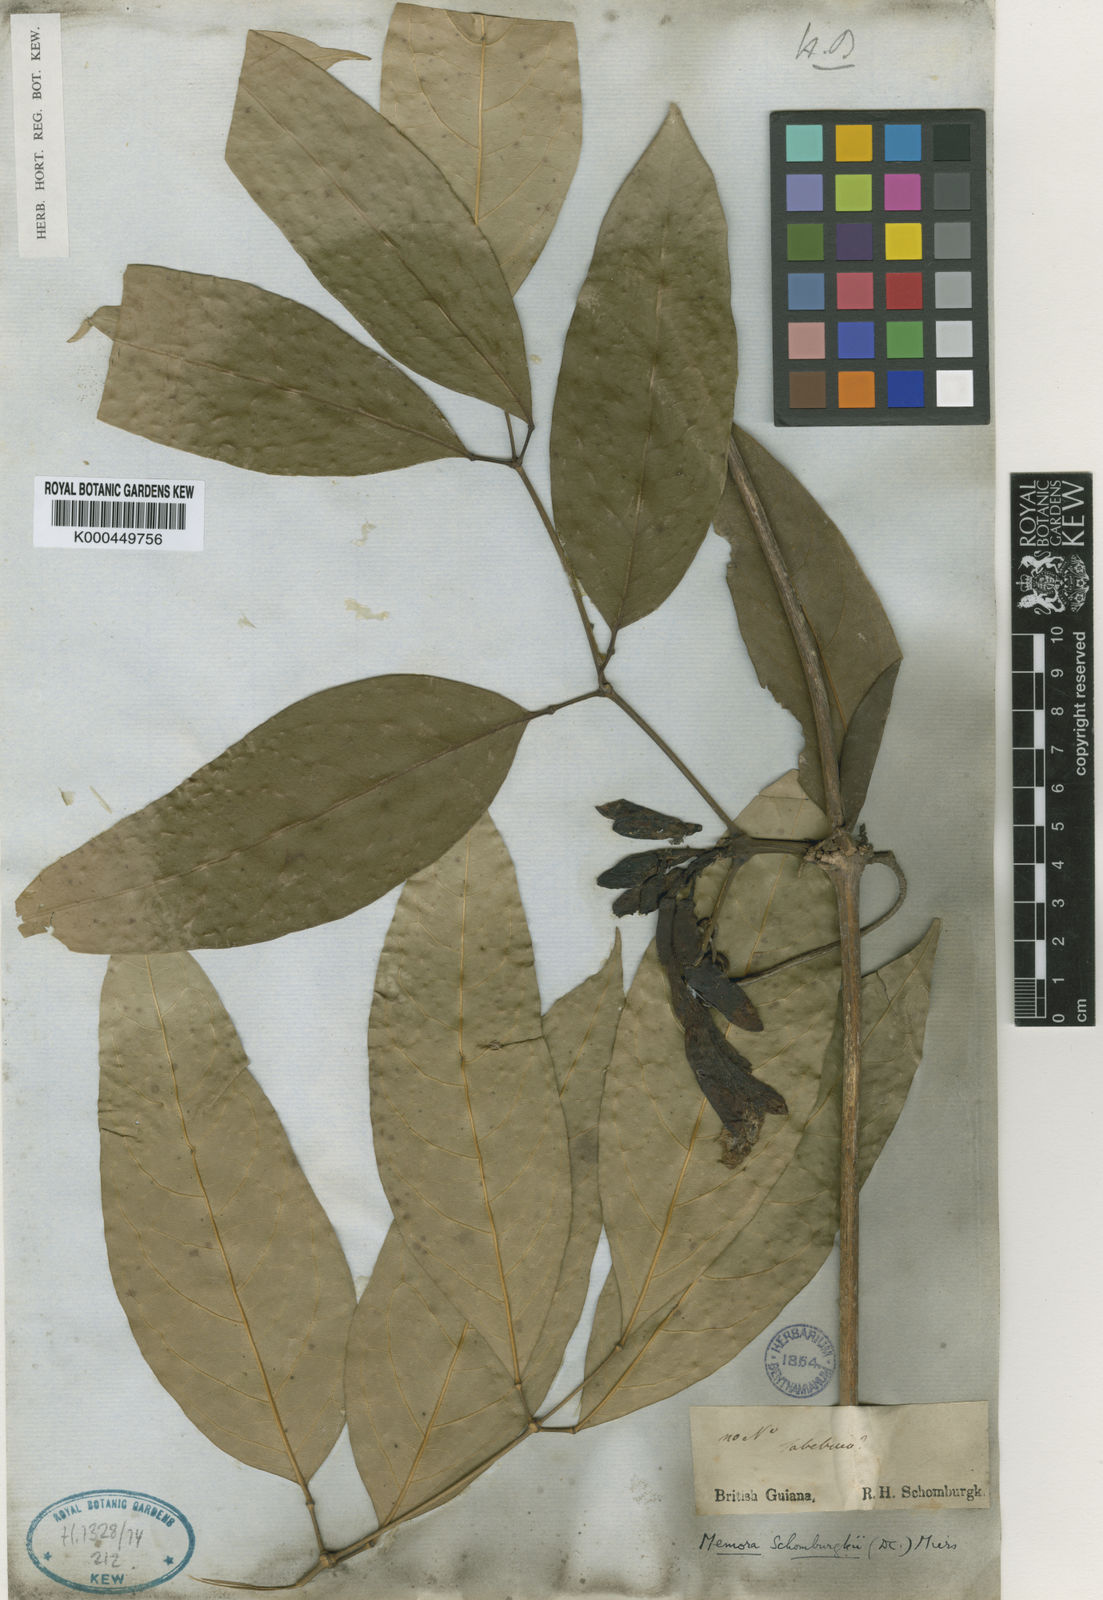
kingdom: Plantae
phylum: Tracheophyta
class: Magnoliopsida
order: Lamiales
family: Bignoniaceae
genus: Adenocalymma
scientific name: Adenocalymma schomburgkii
